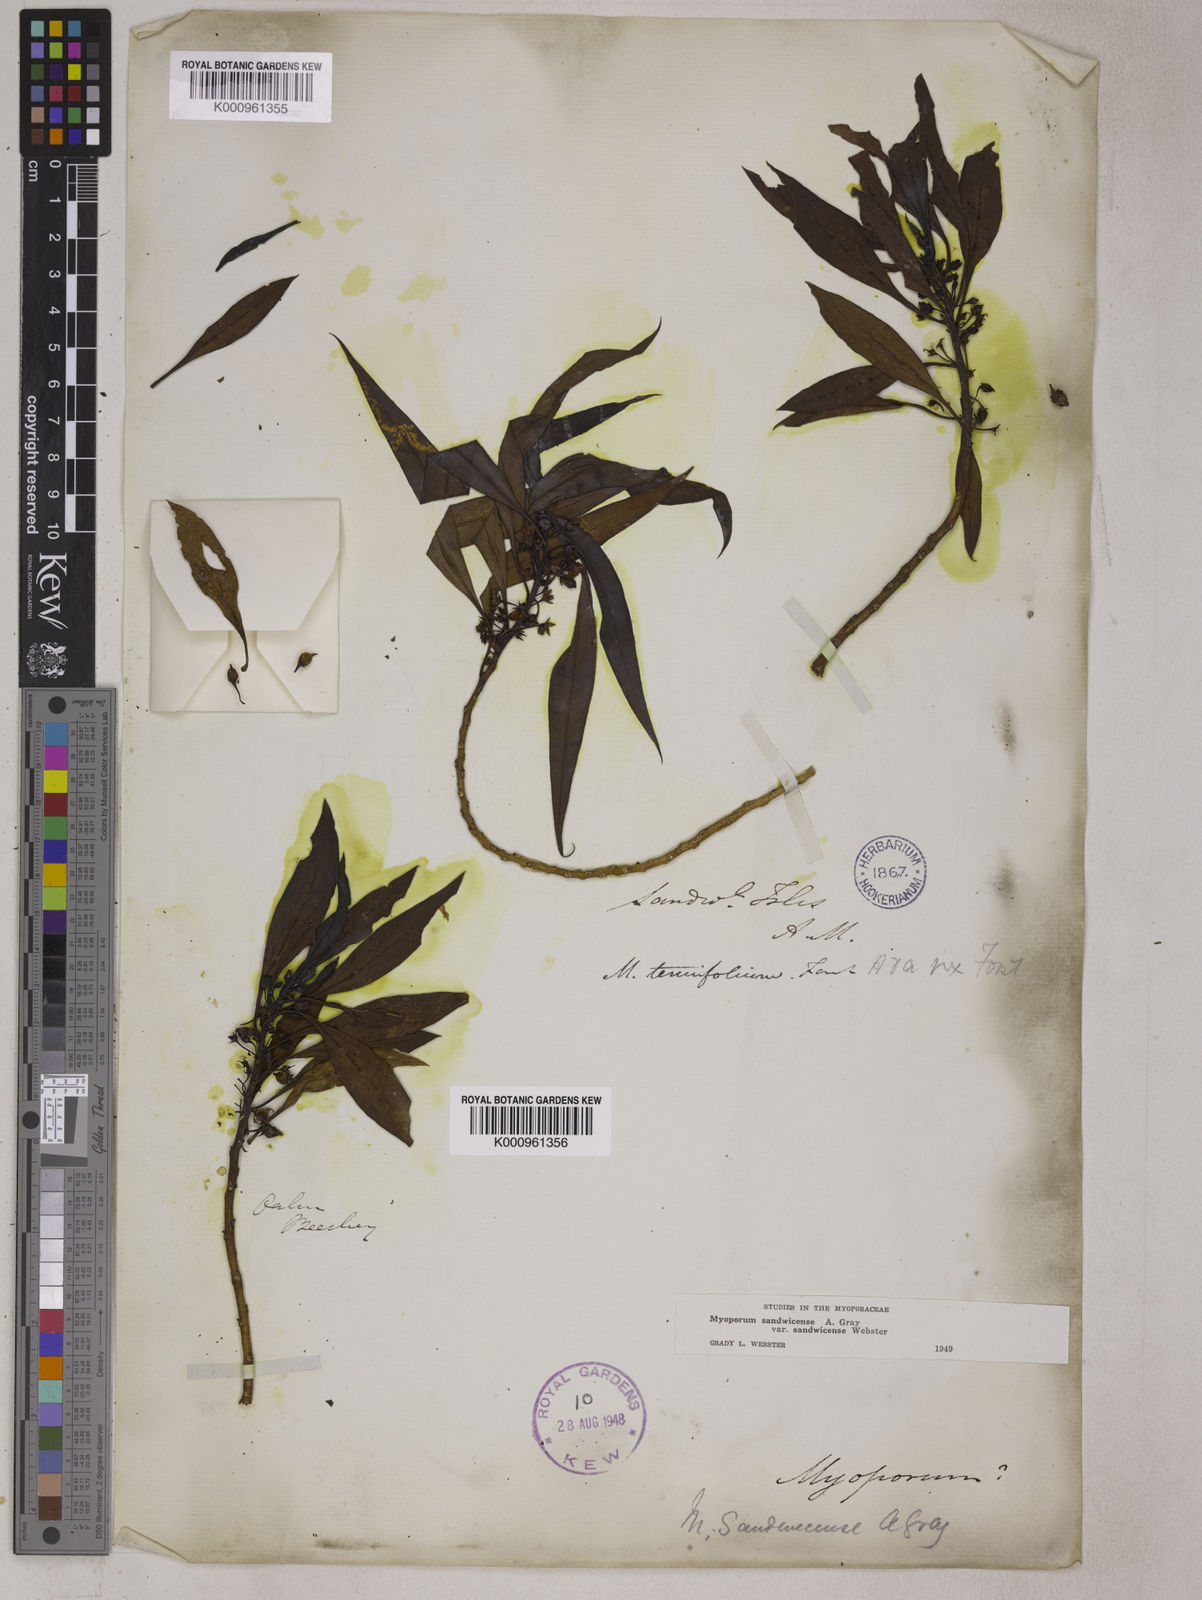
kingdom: Plantae
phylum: Tracheophyta
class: Magnoliopsida
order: Lamiales
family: Scrophulariaceae
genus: Myoporum
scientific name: Myoporum sandwicense
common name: Bastard-sandalwood
